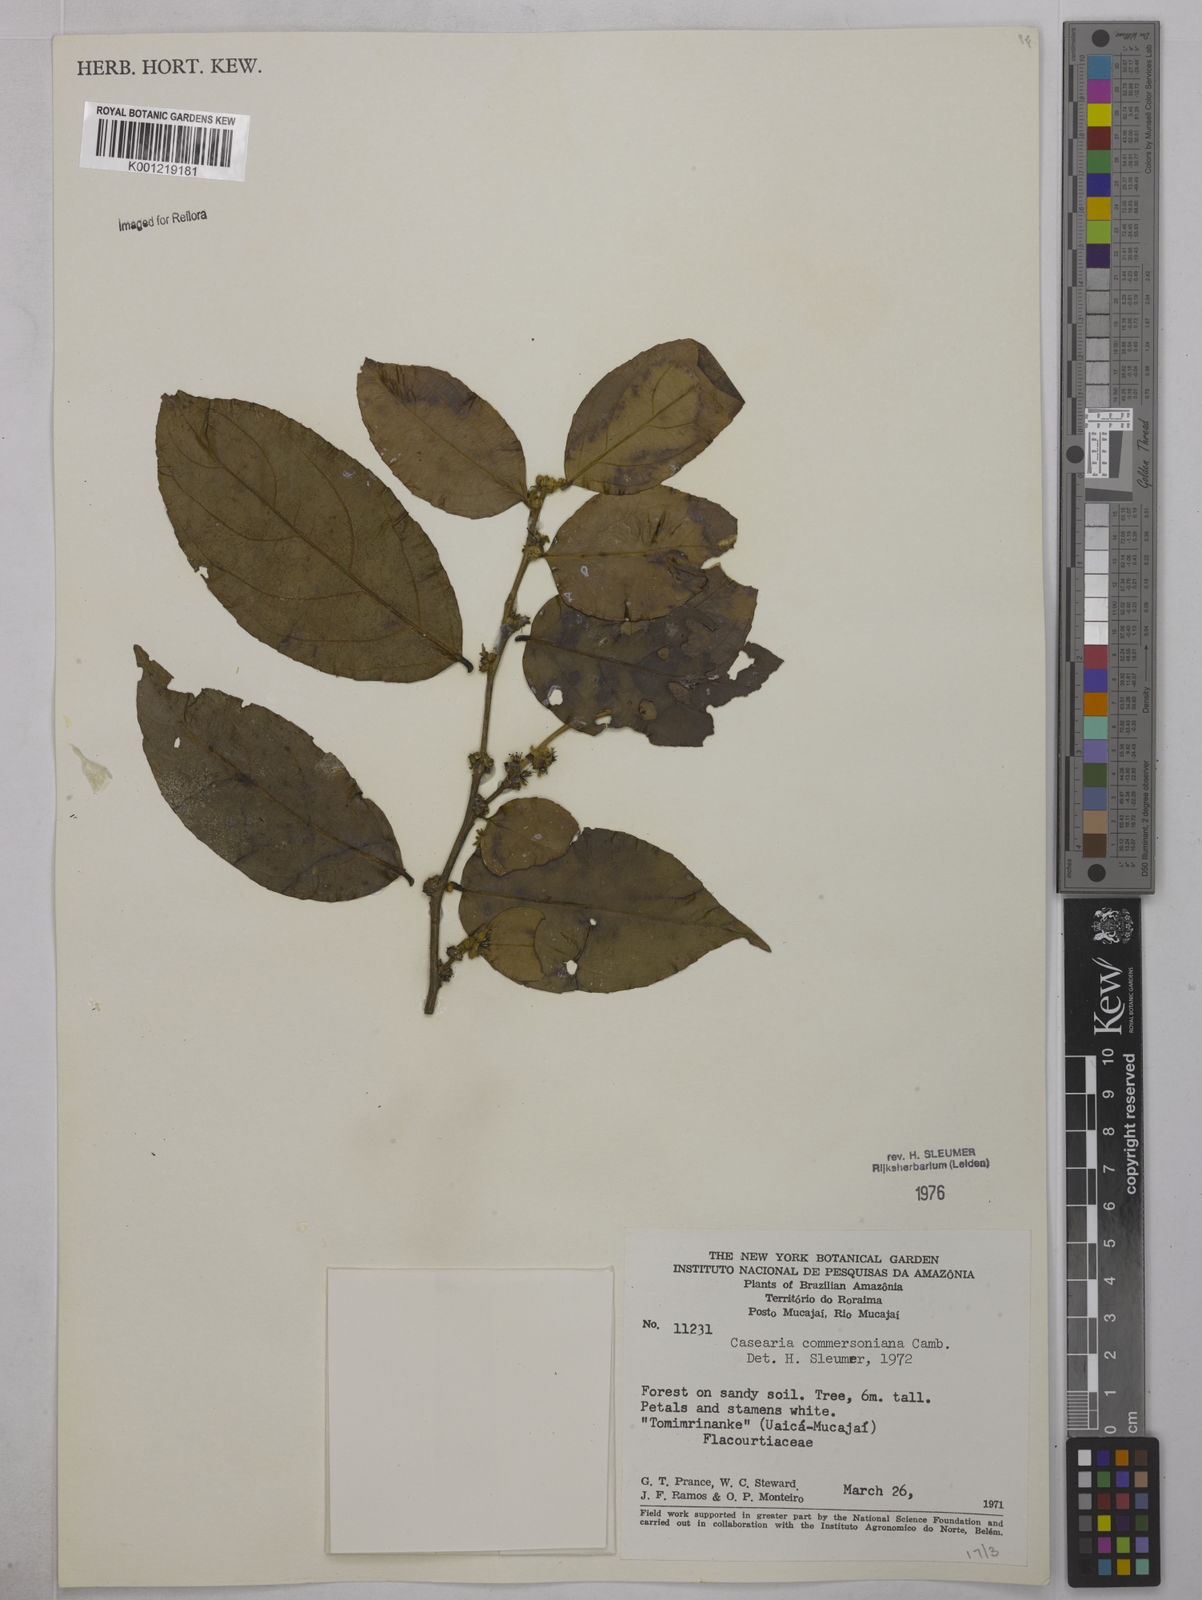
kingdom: Plantae
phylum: Tracheophyta
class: Magnoliopsida
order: Malpighiales
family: Salicaceae
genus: Piparea
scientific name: Piparea dentata
